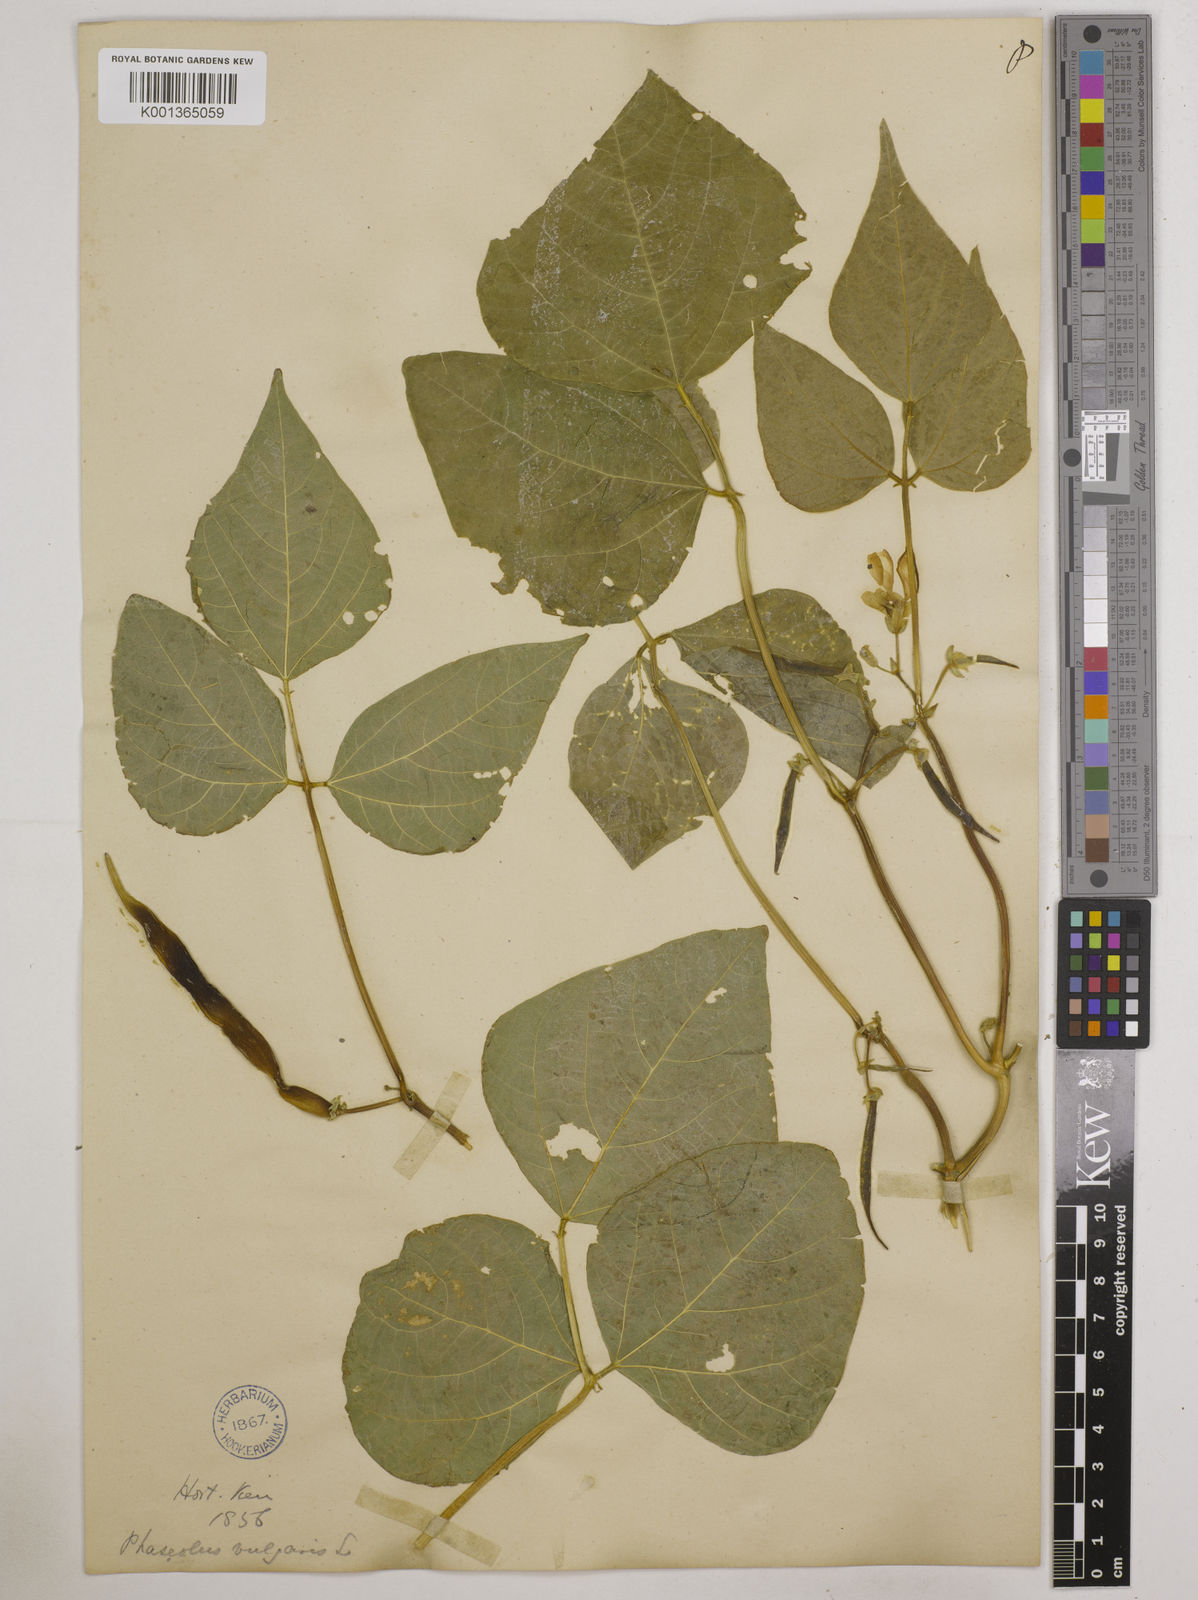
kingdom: Plantae
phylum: Tracheophyta
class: Magnoliopsida
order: Fabales
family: Fabaceae
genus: Phaseolus
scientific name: Phaseolus vulgaris
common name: Bean
